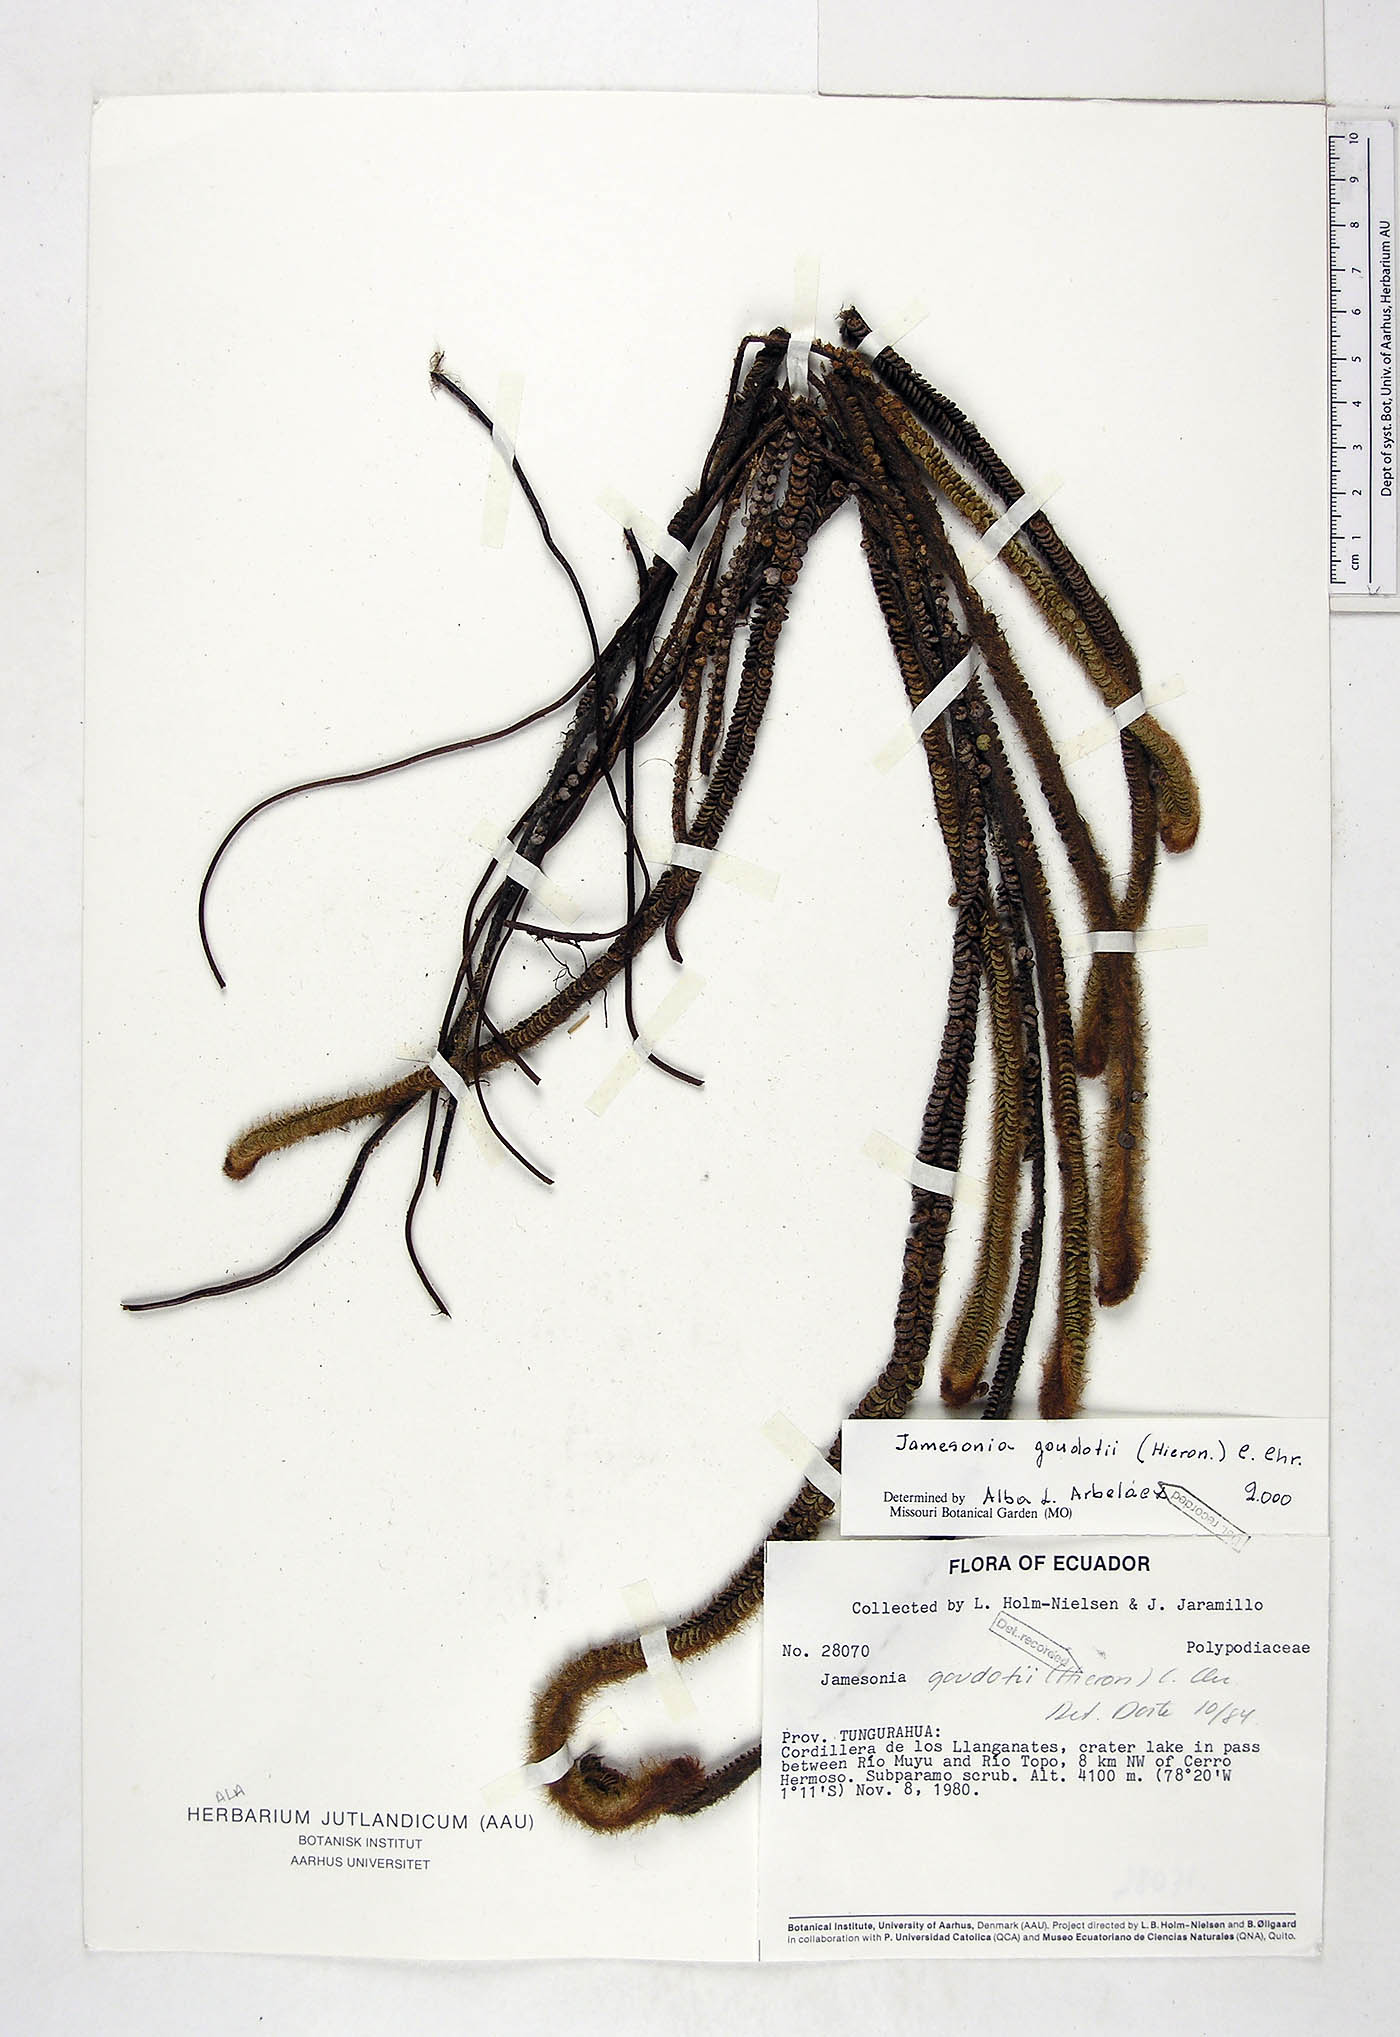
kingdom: Plantae
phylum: Tracheophyta
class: Polypodiopsida
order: Polypodiales
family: Pteridaceae
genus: Jamesonia
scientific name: Jamesonia goudotii
